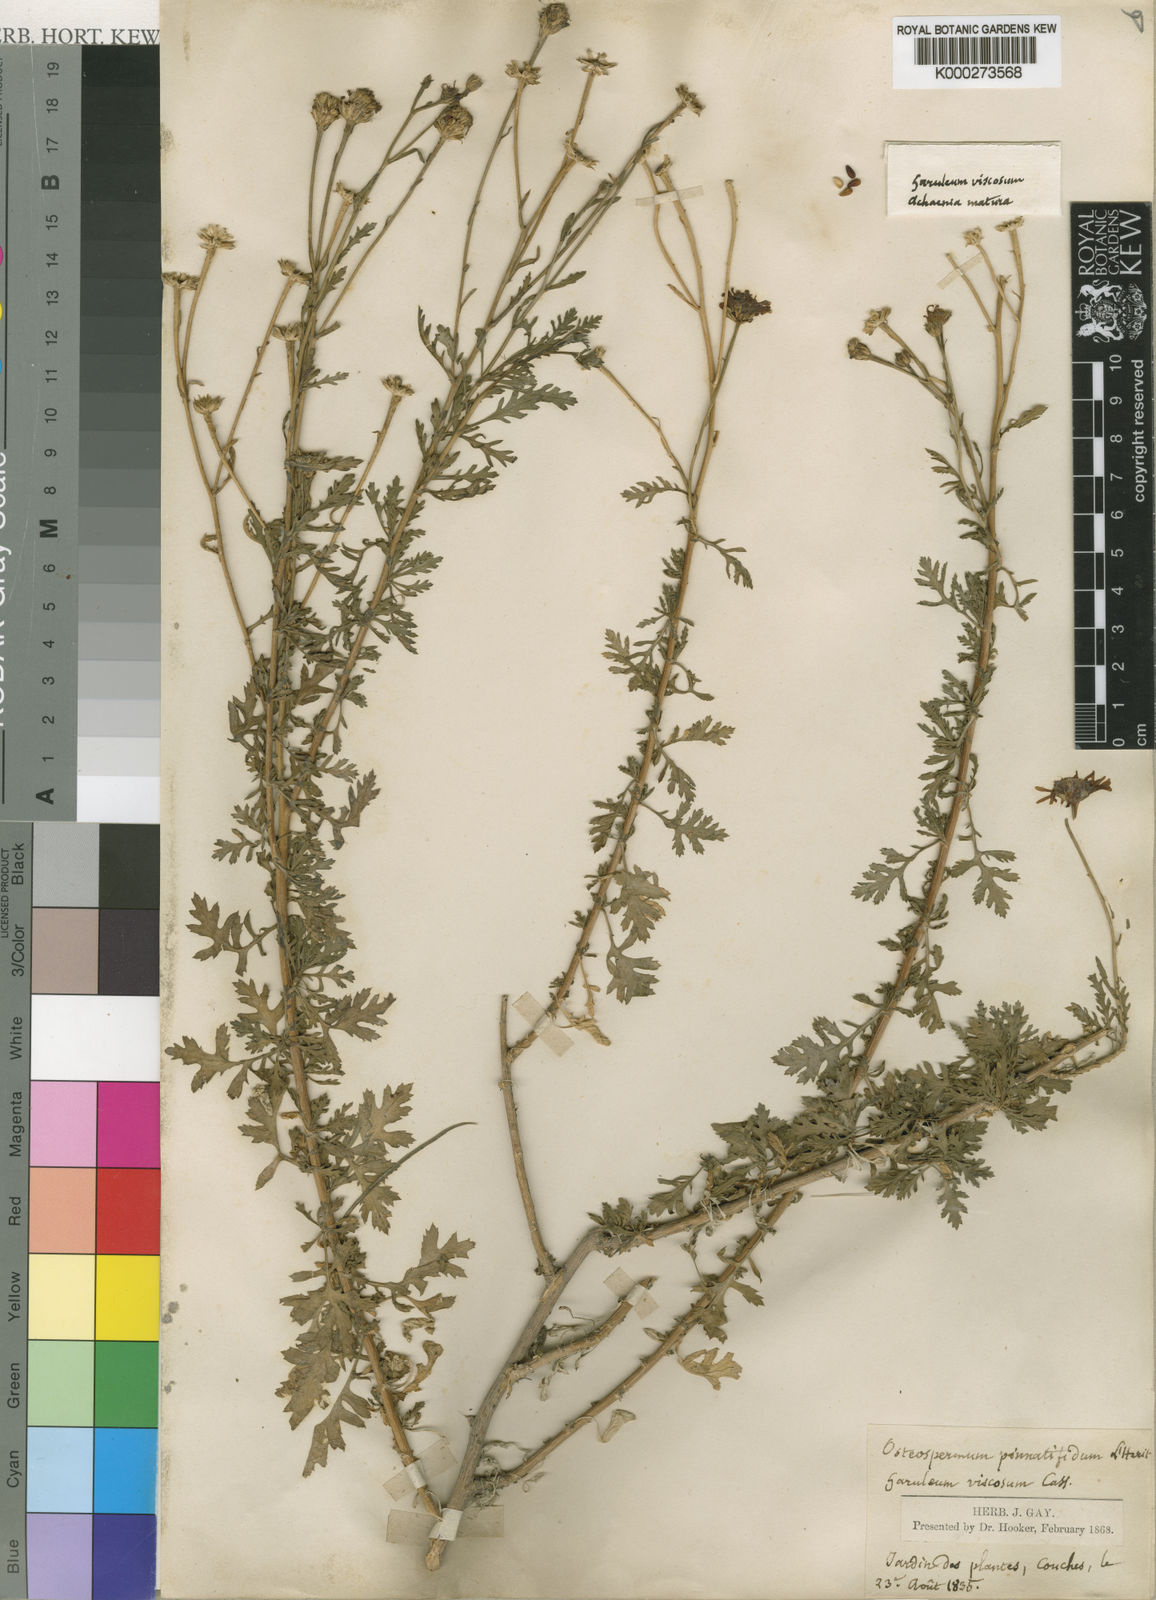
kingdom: Plantae
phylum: Tracheophyta
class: Magnoliopsida
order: Asterales
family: Asteraceae
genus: Garuleum
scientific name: Garuleum pinnatifidum
